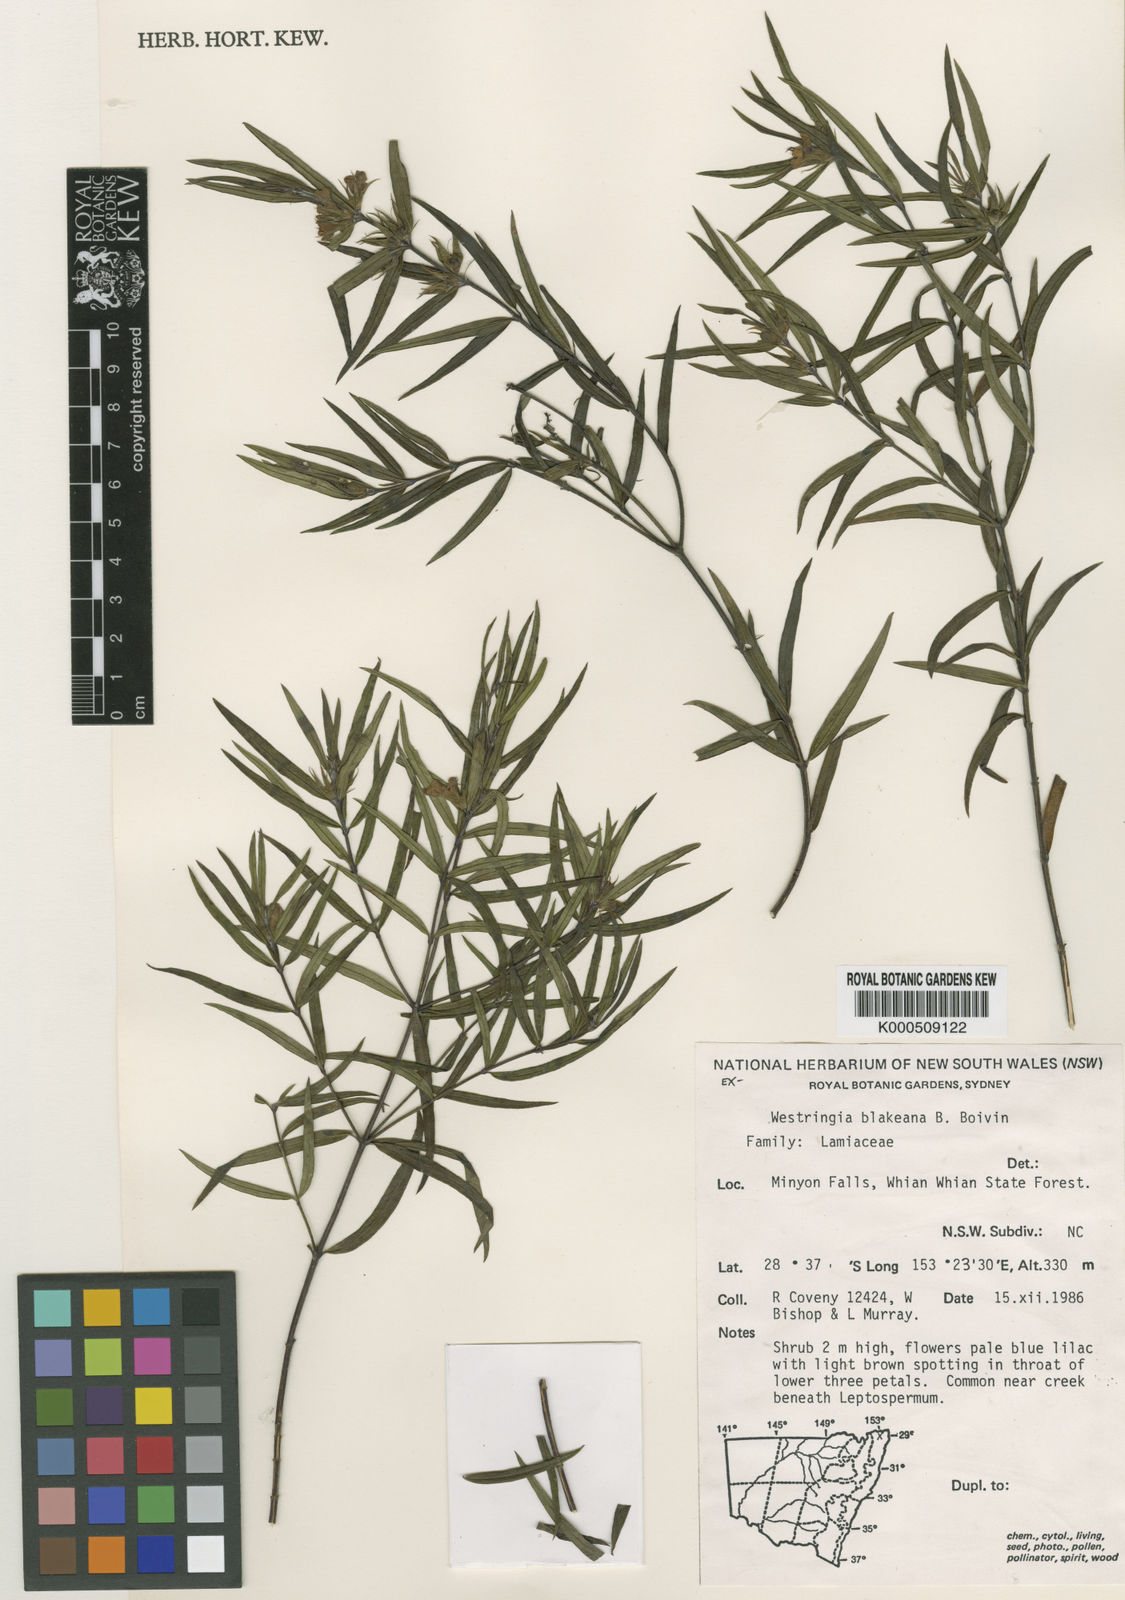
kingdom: Plantae
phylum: Tracheophyta
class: Magnoliopsida
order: Lamiales
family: Lamiaceae
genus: Westringia
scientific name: Westringia blakeana
